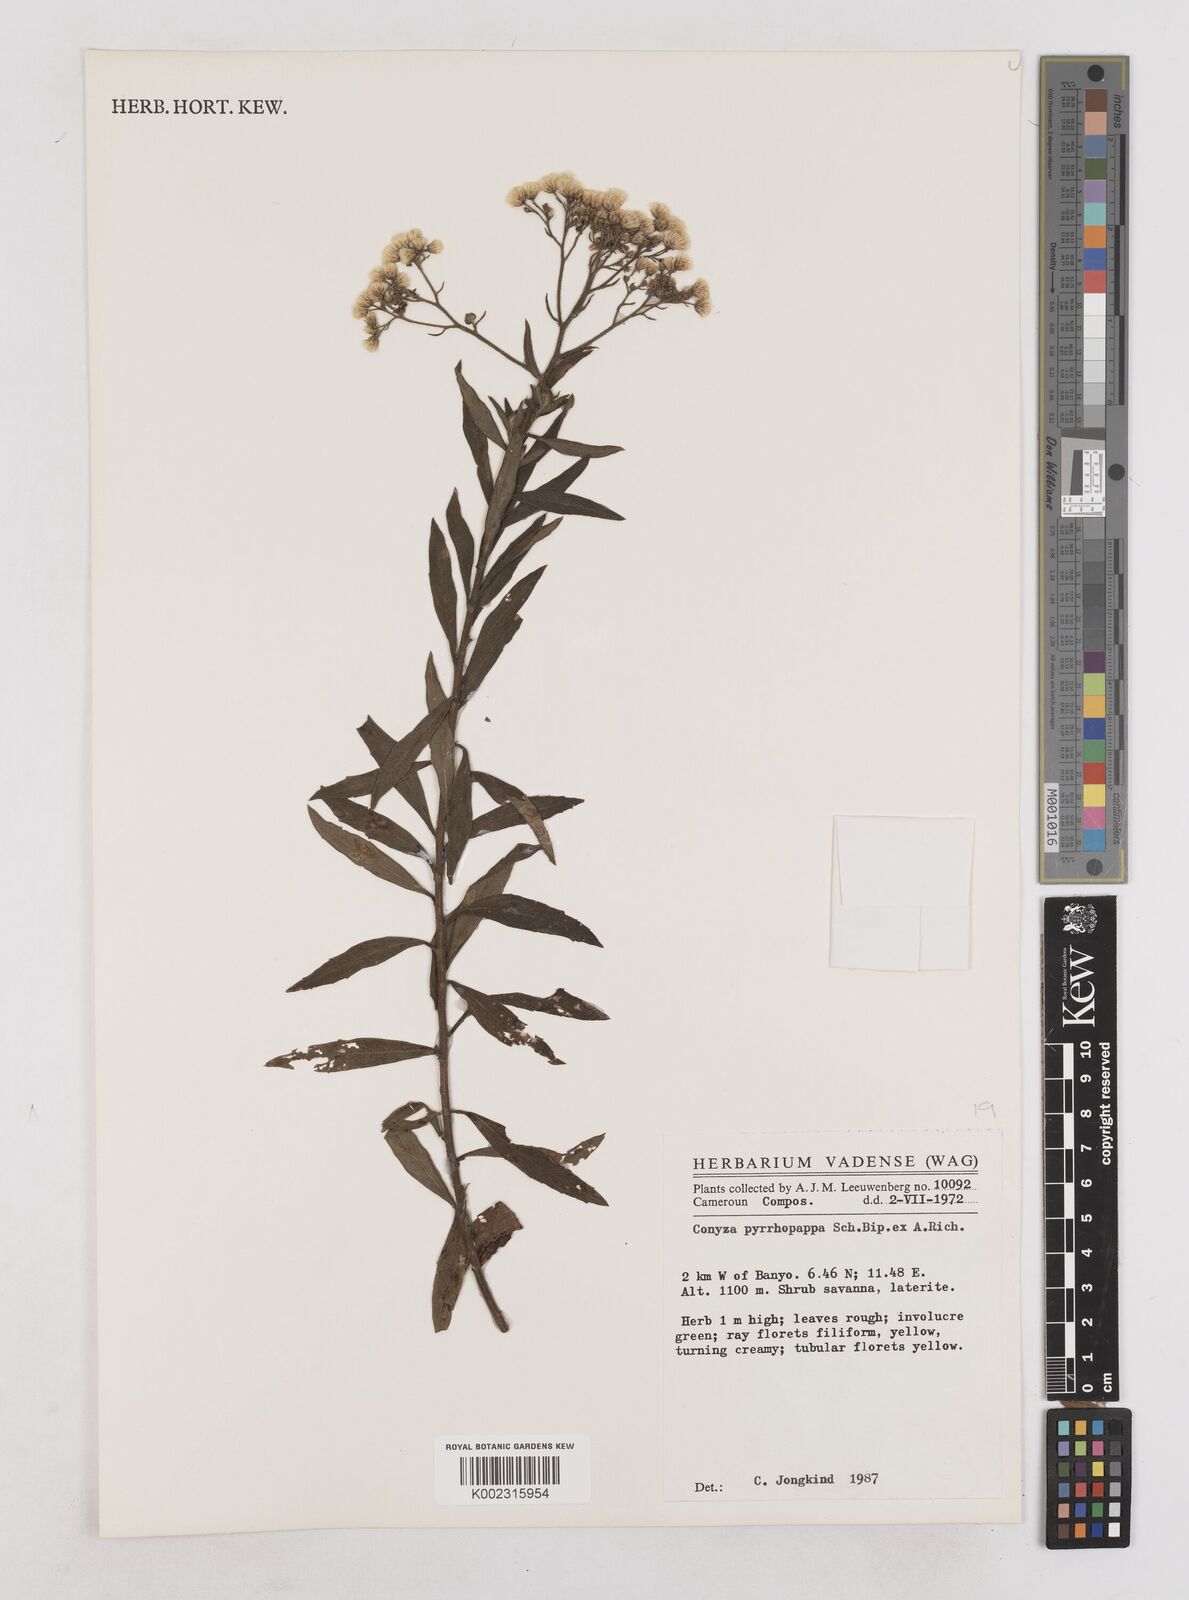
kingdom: Plantae
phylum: Tracheophyta
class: Magnoliopsida
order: Asterales
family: Asteraceae
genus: Microglossa
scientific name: Microglossa pyrrhopappa
